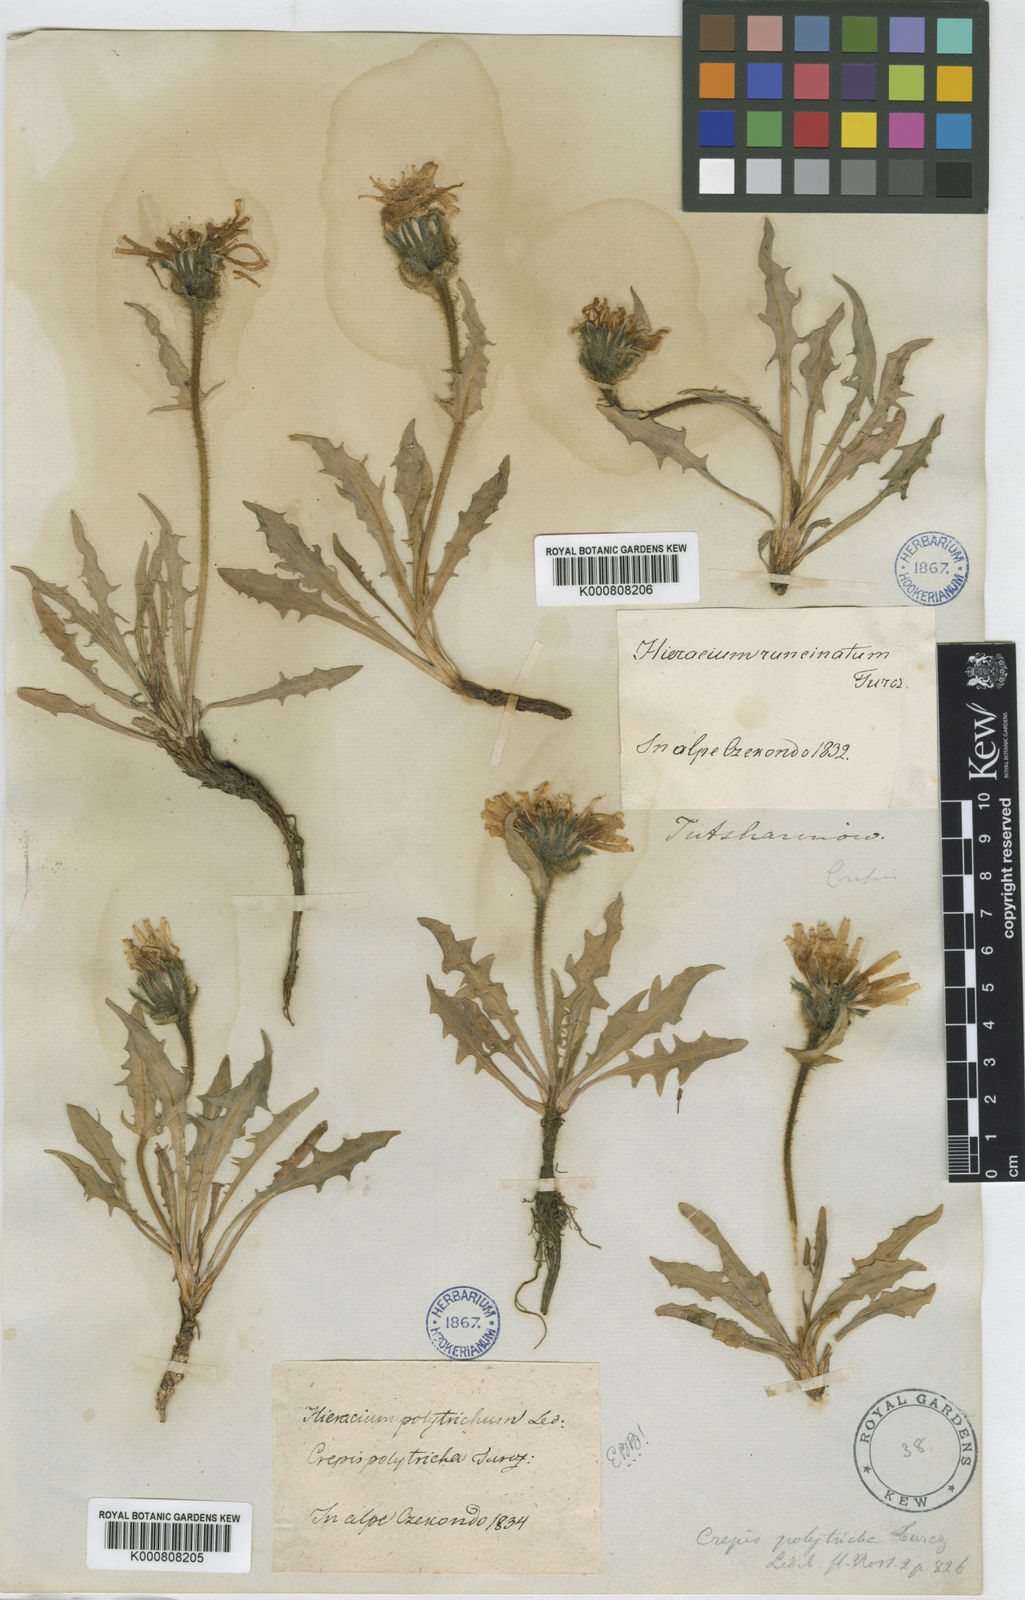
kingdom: Plantae
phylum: Tracheophyta
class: Magnoliopsida
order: Asterales
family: Asteraceae
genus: Crepis
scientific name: Crepis chrysantha
